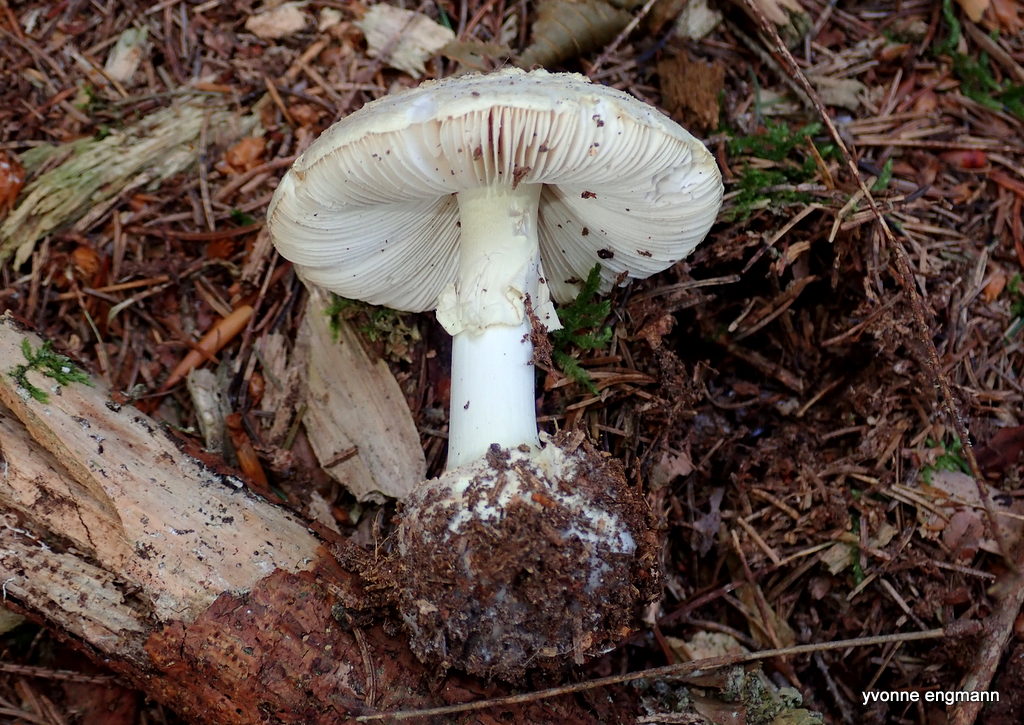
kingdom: Fungi
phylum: Basidiomycota
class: Agaricomycetes
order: Agaricales
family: Amanitaceae
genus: Amanita
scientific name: Amanita citrina
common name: kugleknoldet fluesvamp
